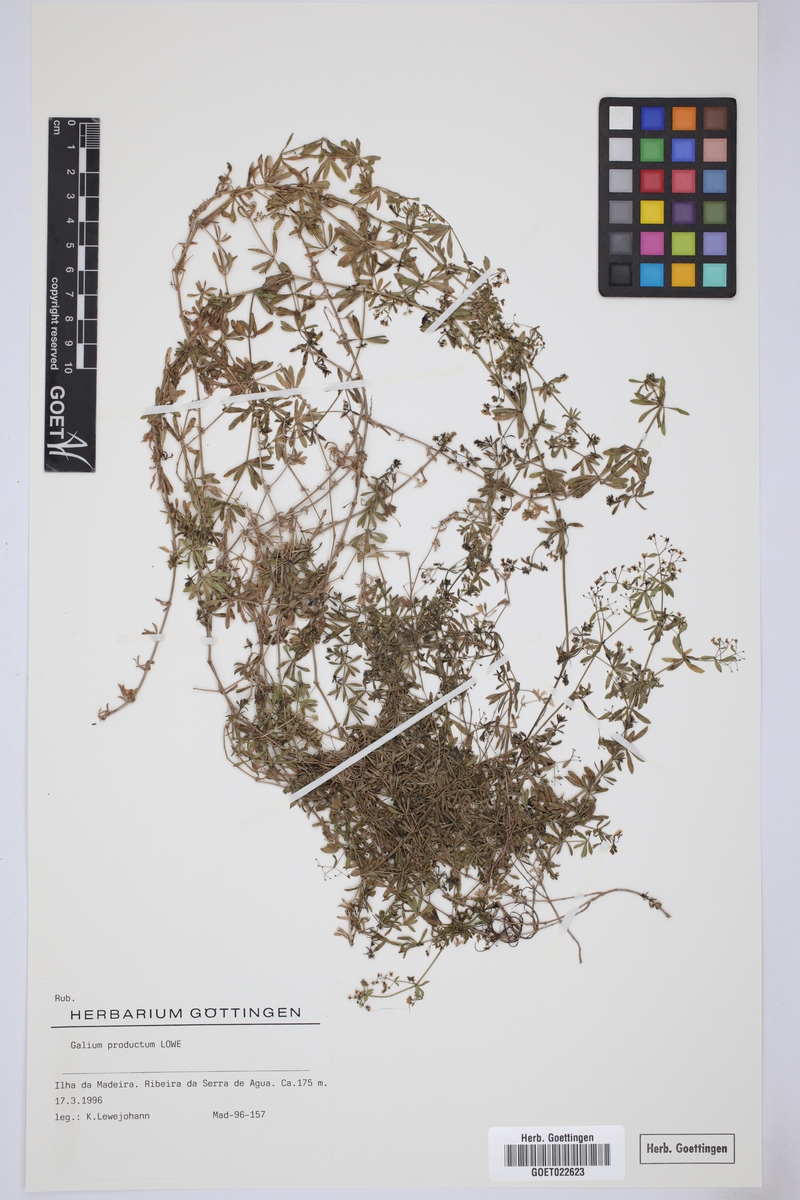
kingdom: Plantae
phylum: Tracheophyta
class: Magnoliopsida
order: Gentianales
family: Rubiaceae
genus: Galium
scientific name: Galium productum
